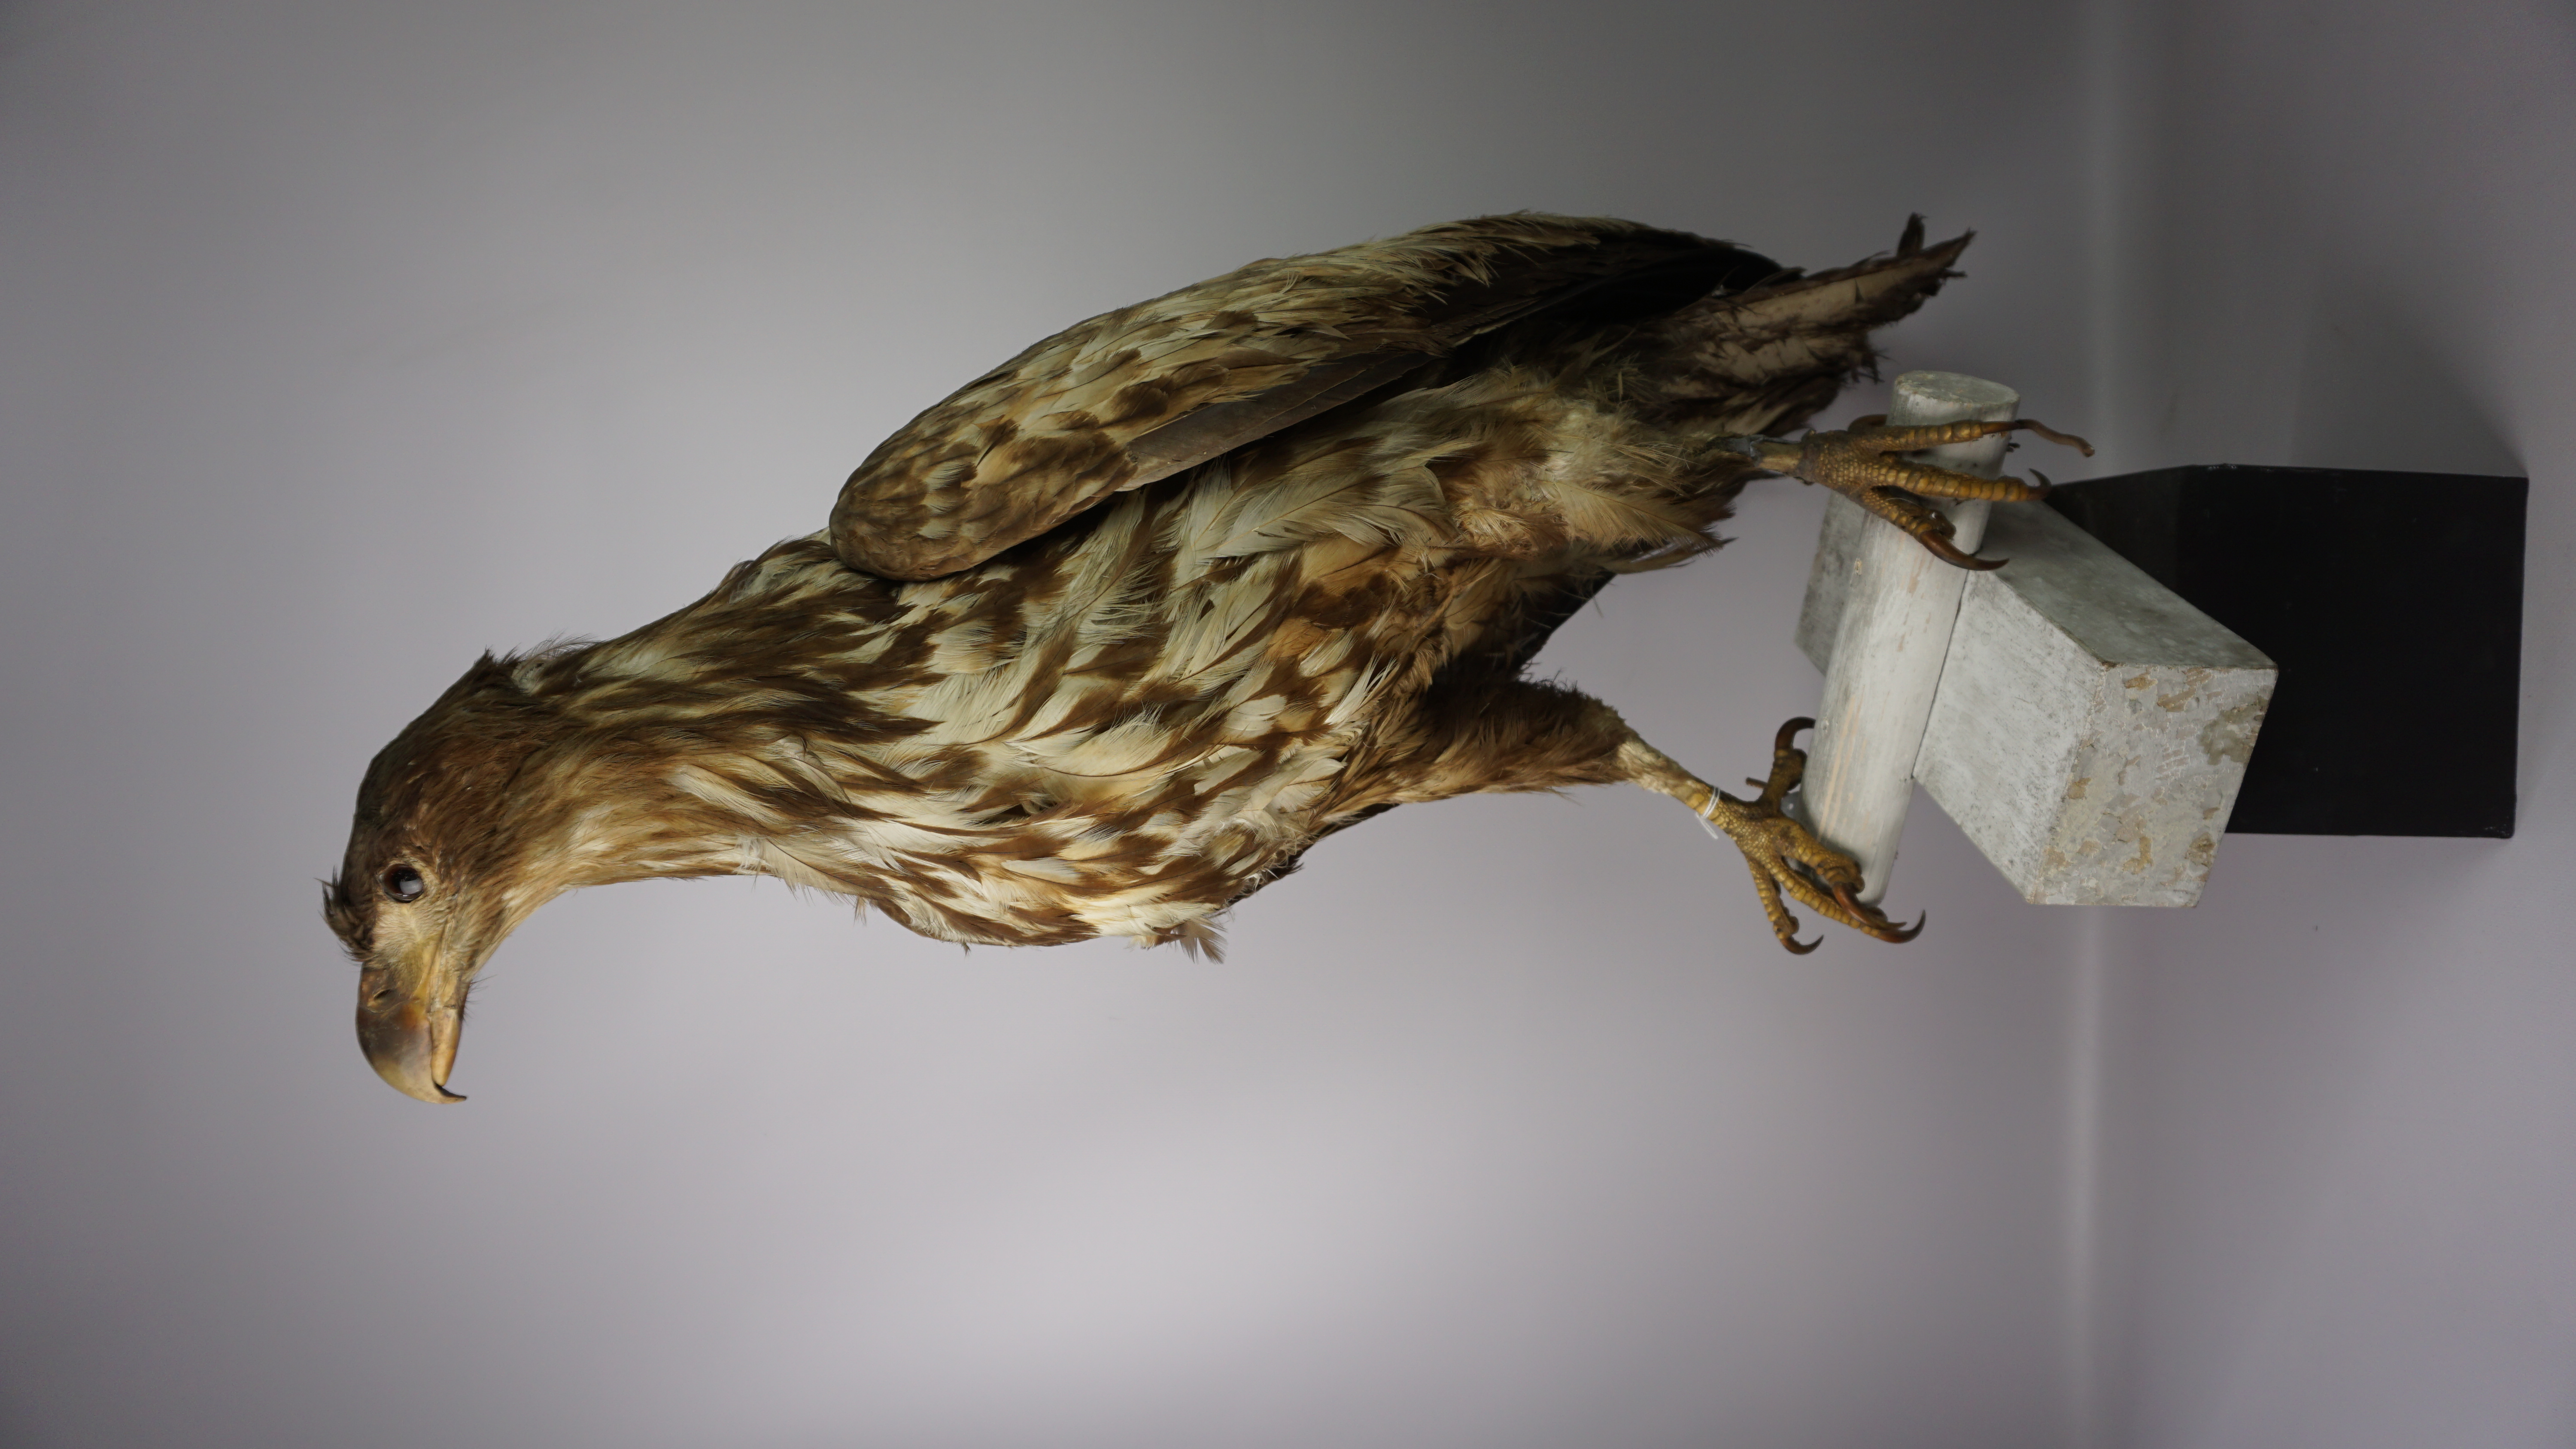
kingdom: Animalia
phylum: Chordata
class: Aves
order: Accipitriformes
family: Accipitridae
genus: Haliaeetus
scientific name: Haliaeetus albicilla
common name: White-tailed eagle
